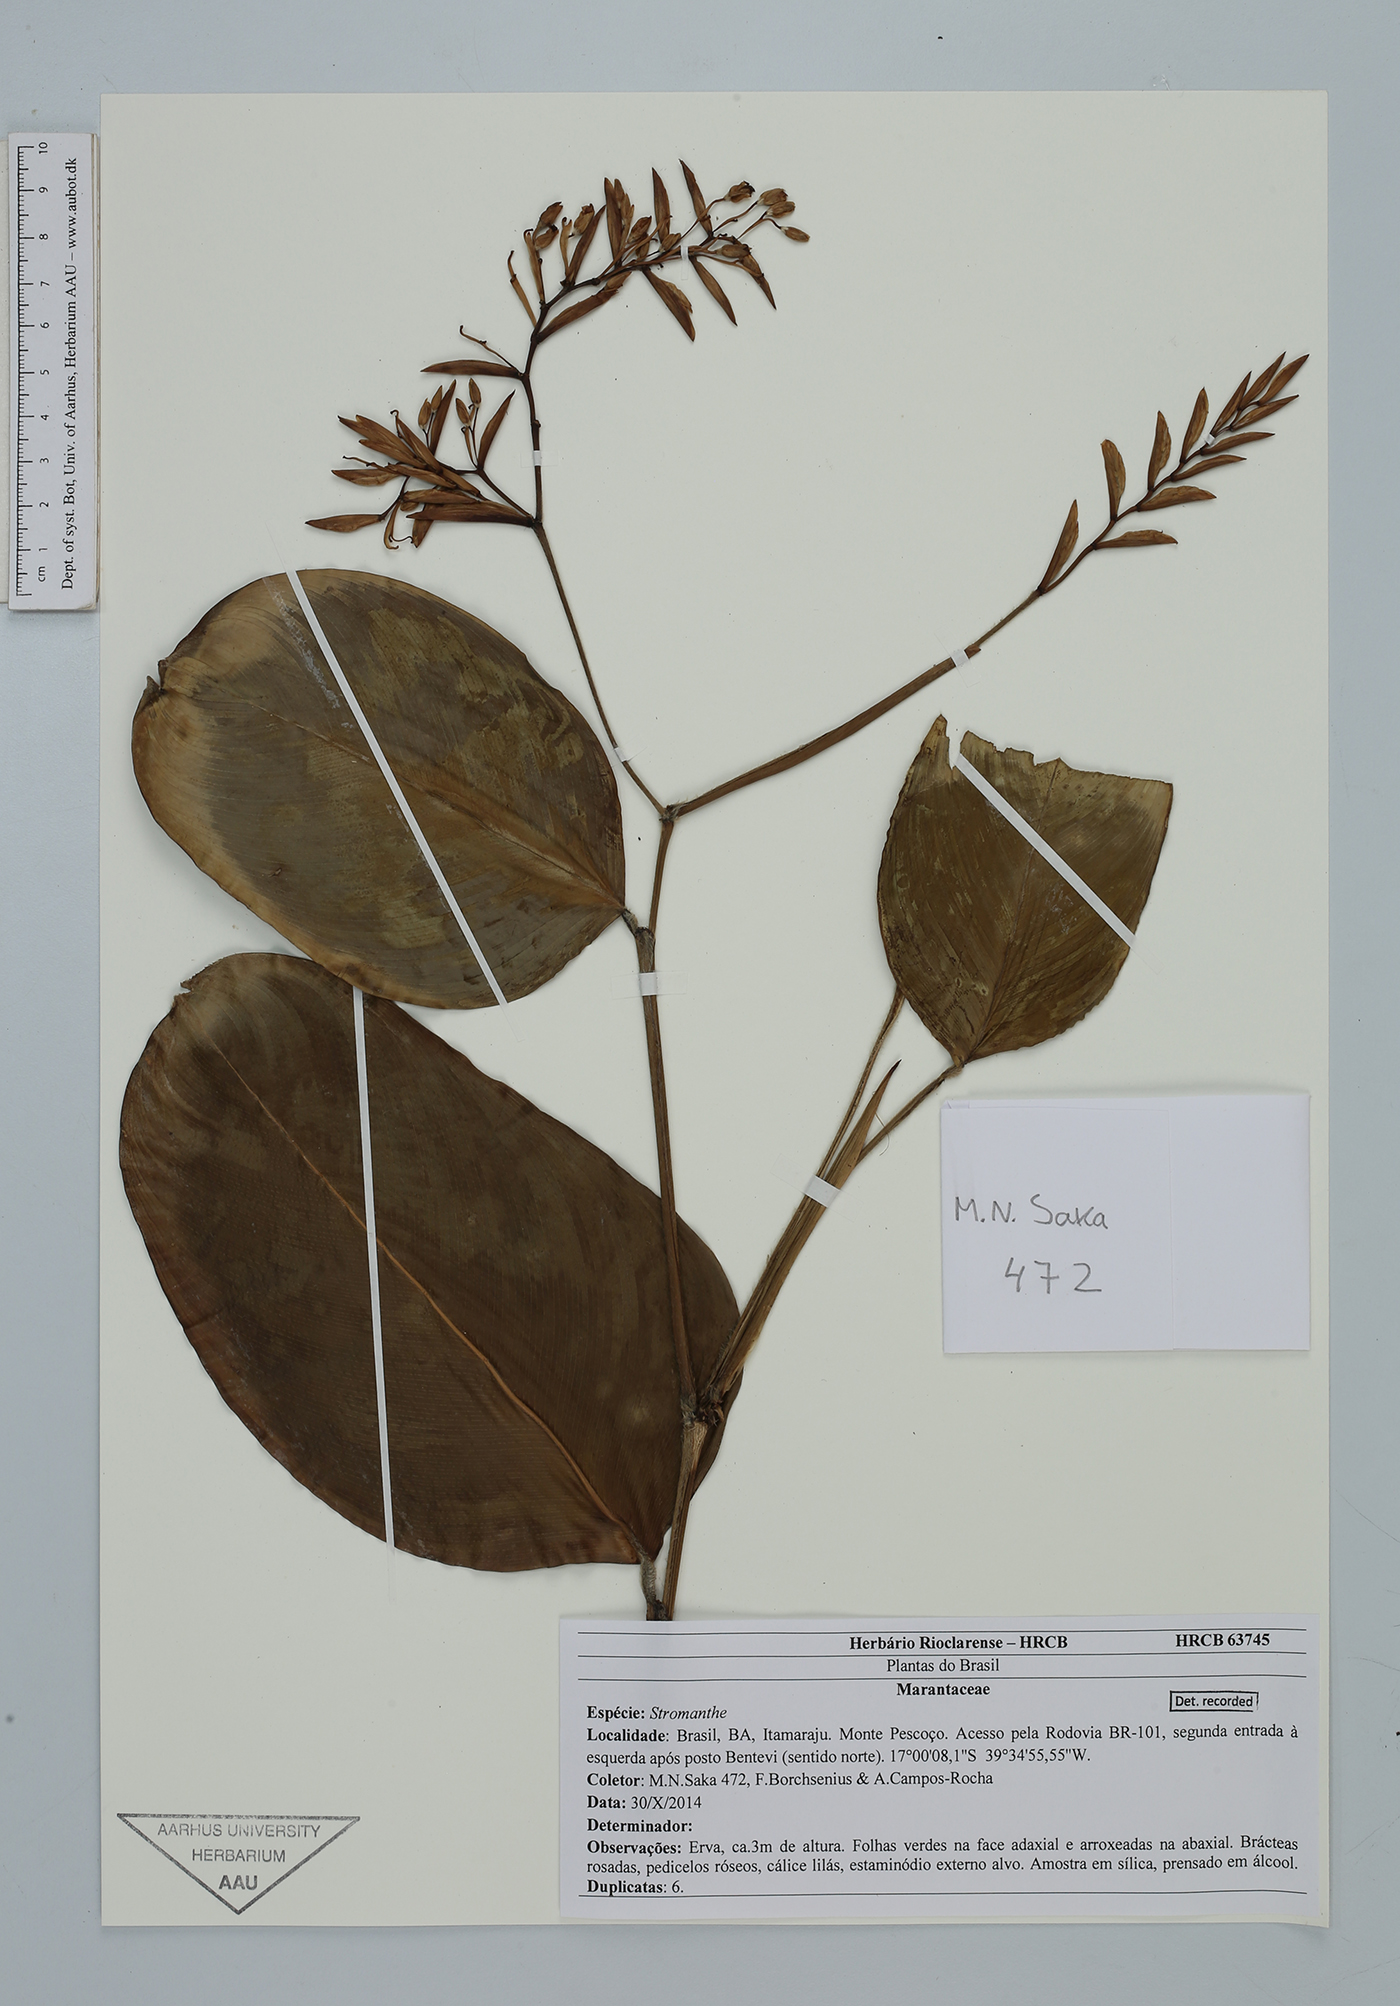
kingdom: Plantae
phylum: Tracheophyta
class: Liliopsida
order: Zingiberales
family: Marantaceae
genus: Stromanthe
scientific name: Stromanthe
